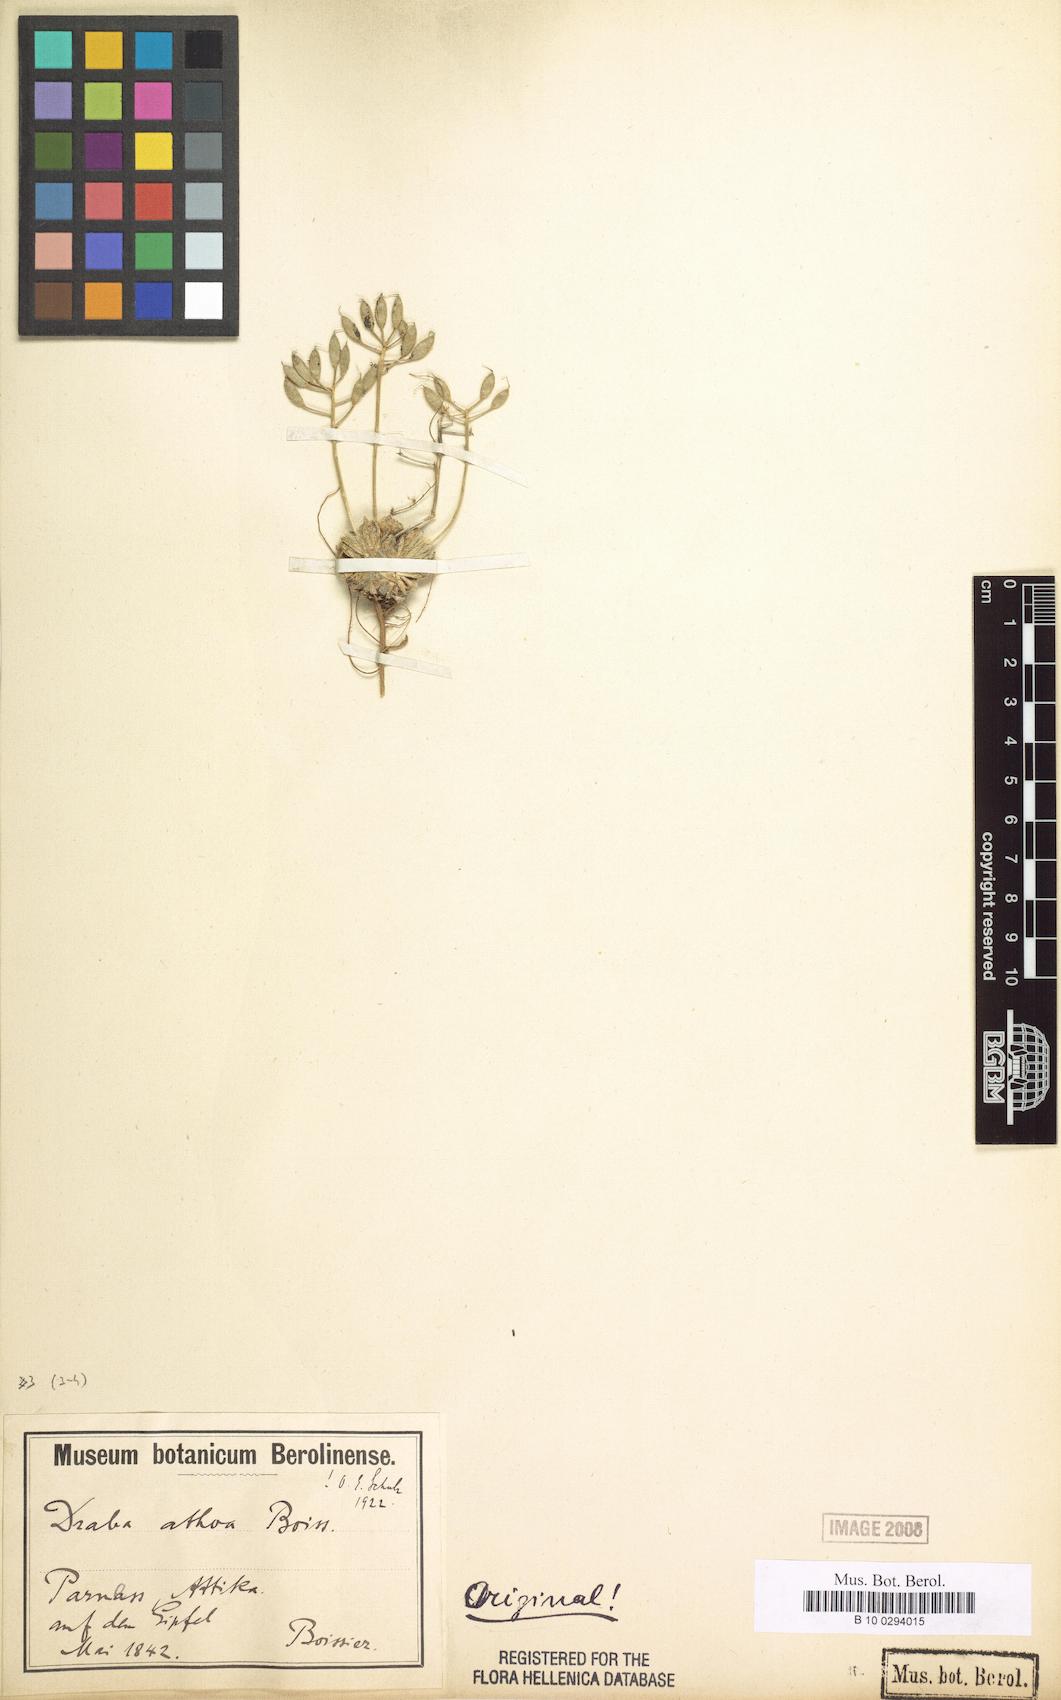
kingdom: Plantae
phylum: Tracheophyta
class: Magnoliopsida
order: Brassicales
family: Brassicaceae
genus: Draba
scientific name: Draba lasiocarpa
